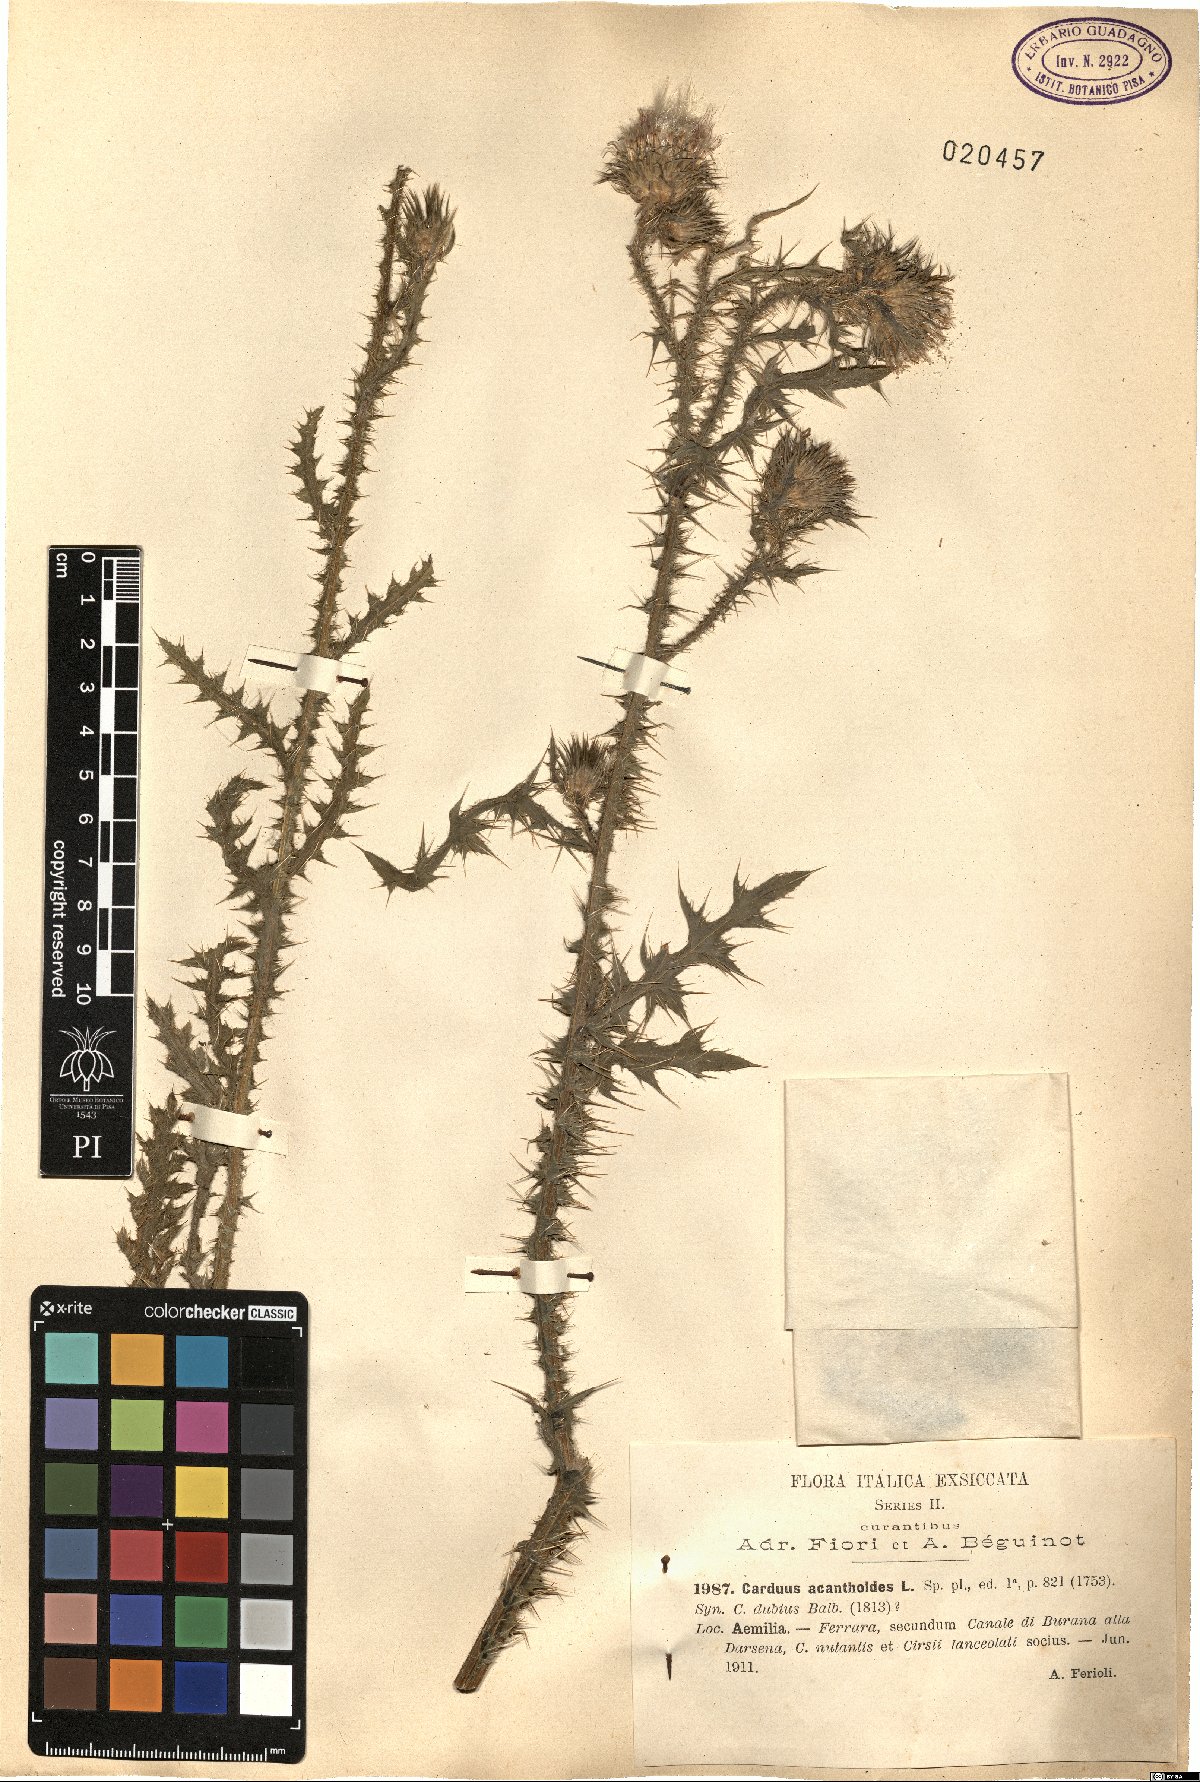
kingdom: Plantae
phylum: Tracheophyta
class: Magnoliopsida
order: Asterales
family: Asteraceae
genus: Carduus
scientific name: Carduus acanthoides
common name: Plumeless thistle
